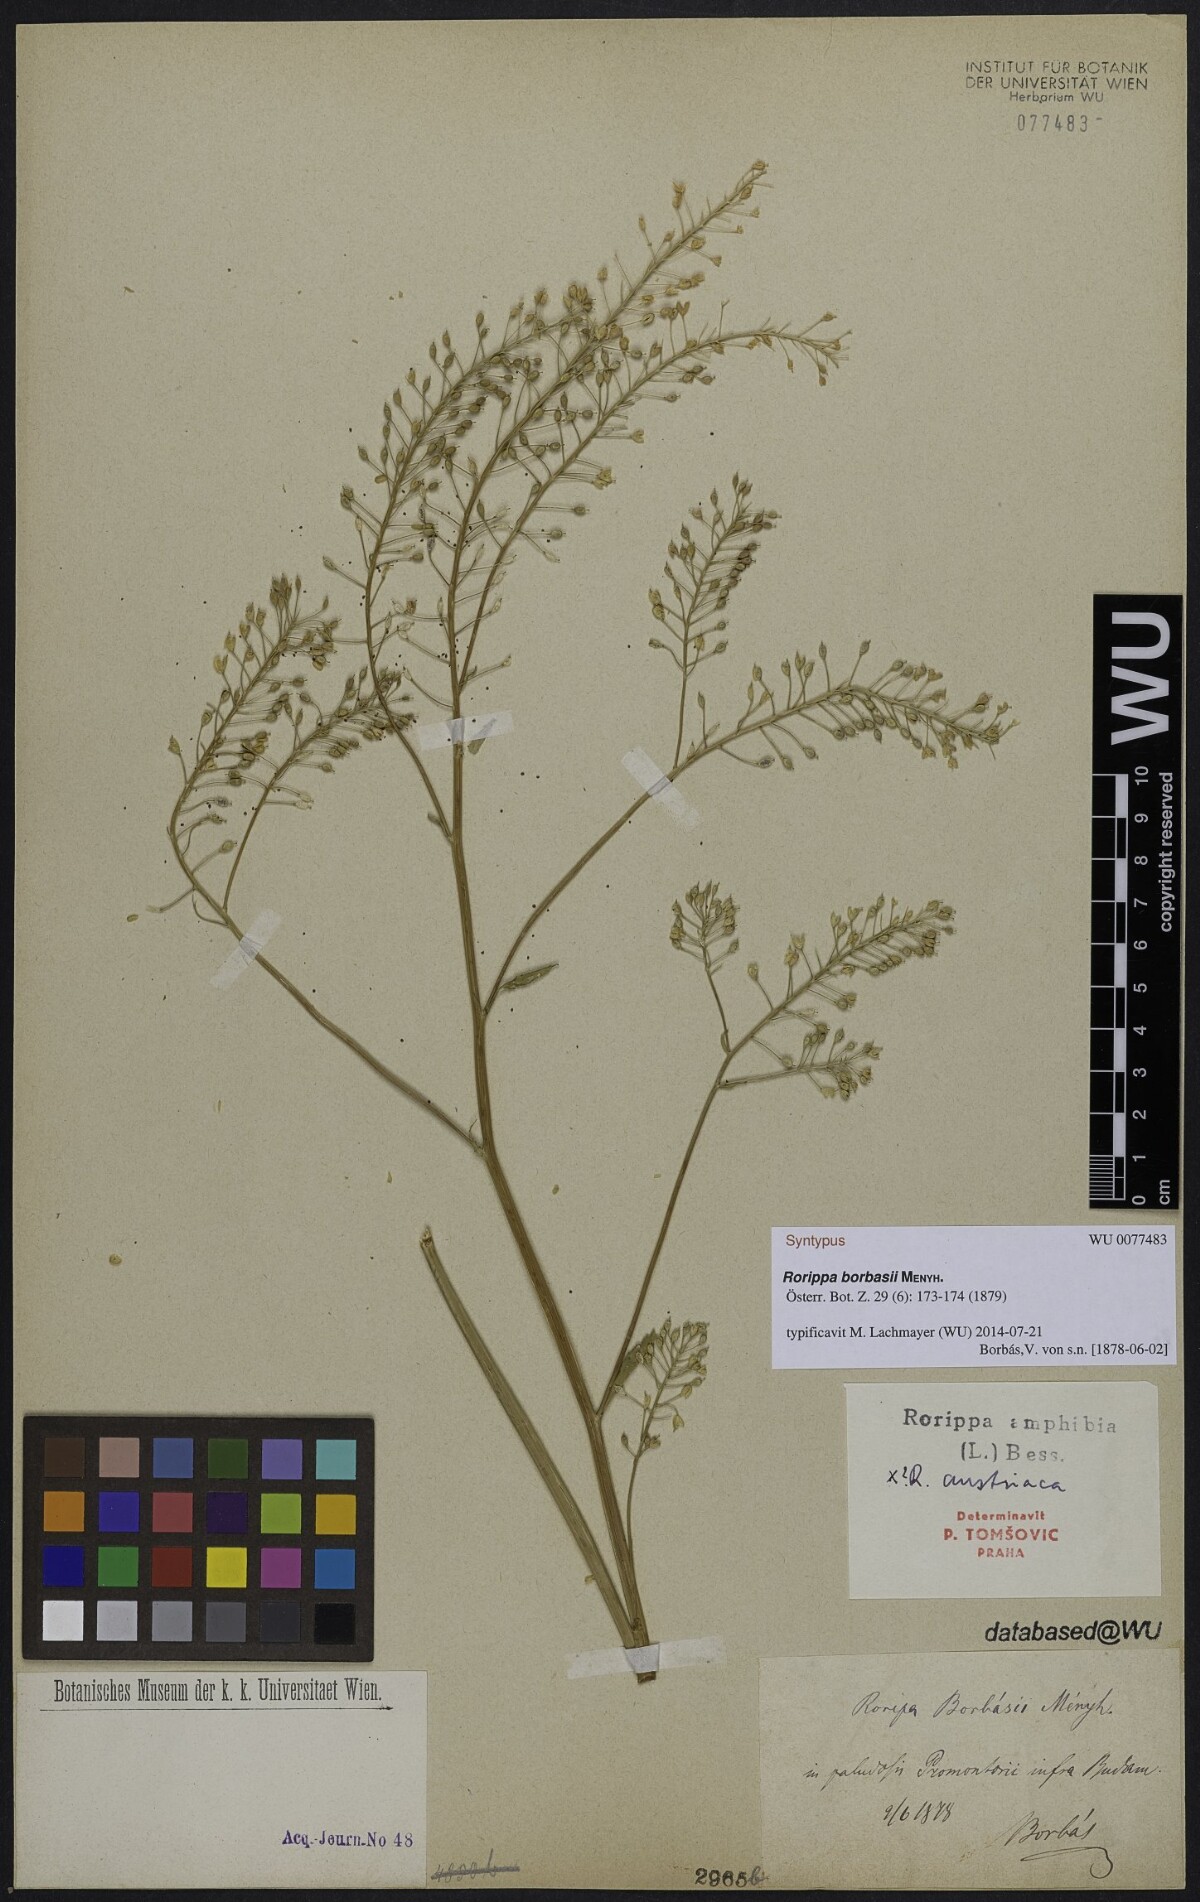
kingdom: Plantae
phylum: Tracheophyta
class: Magnoliopsida
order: Brassicales
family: Brassicaceae
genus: Rorippa
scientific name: Rorippa auriculata
